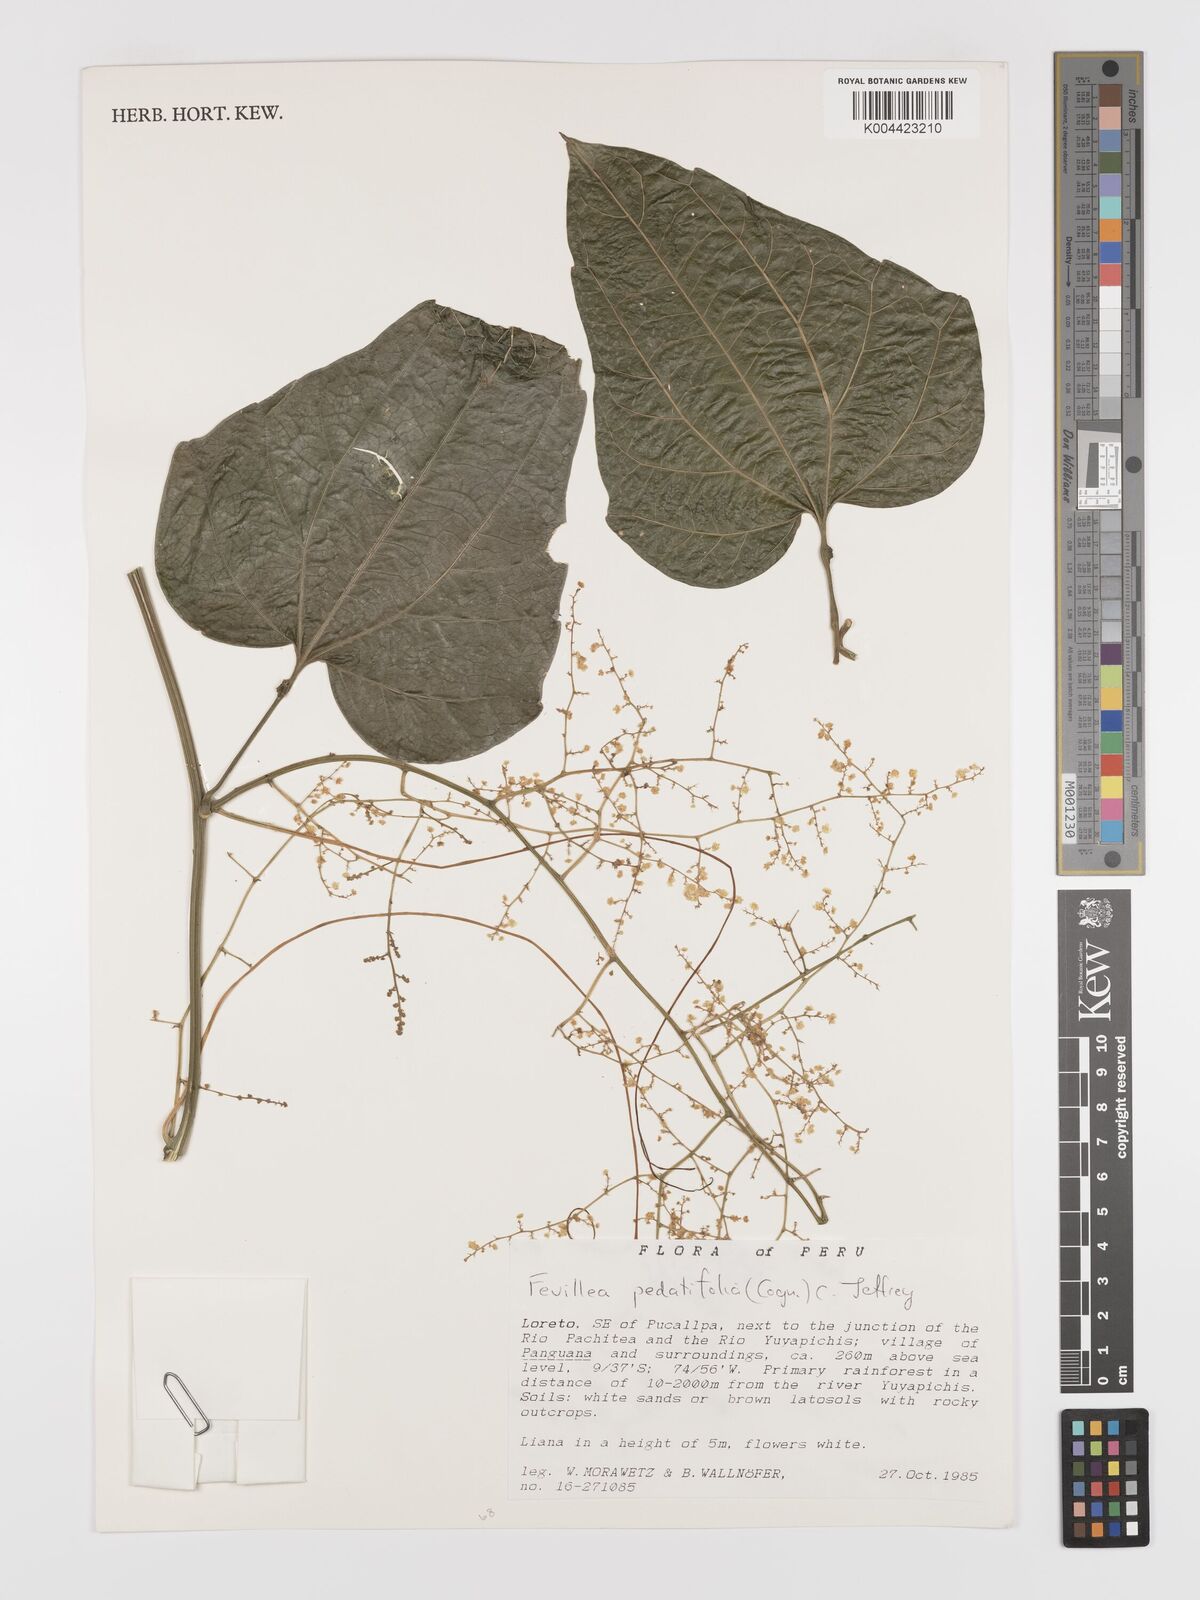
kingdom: Plantae
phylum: Tracheophyta
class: Magnoliopsida
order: Cucurbitales
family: Cucurbitaceae
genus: Fevillea
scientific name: Fevillea pedatifolia
